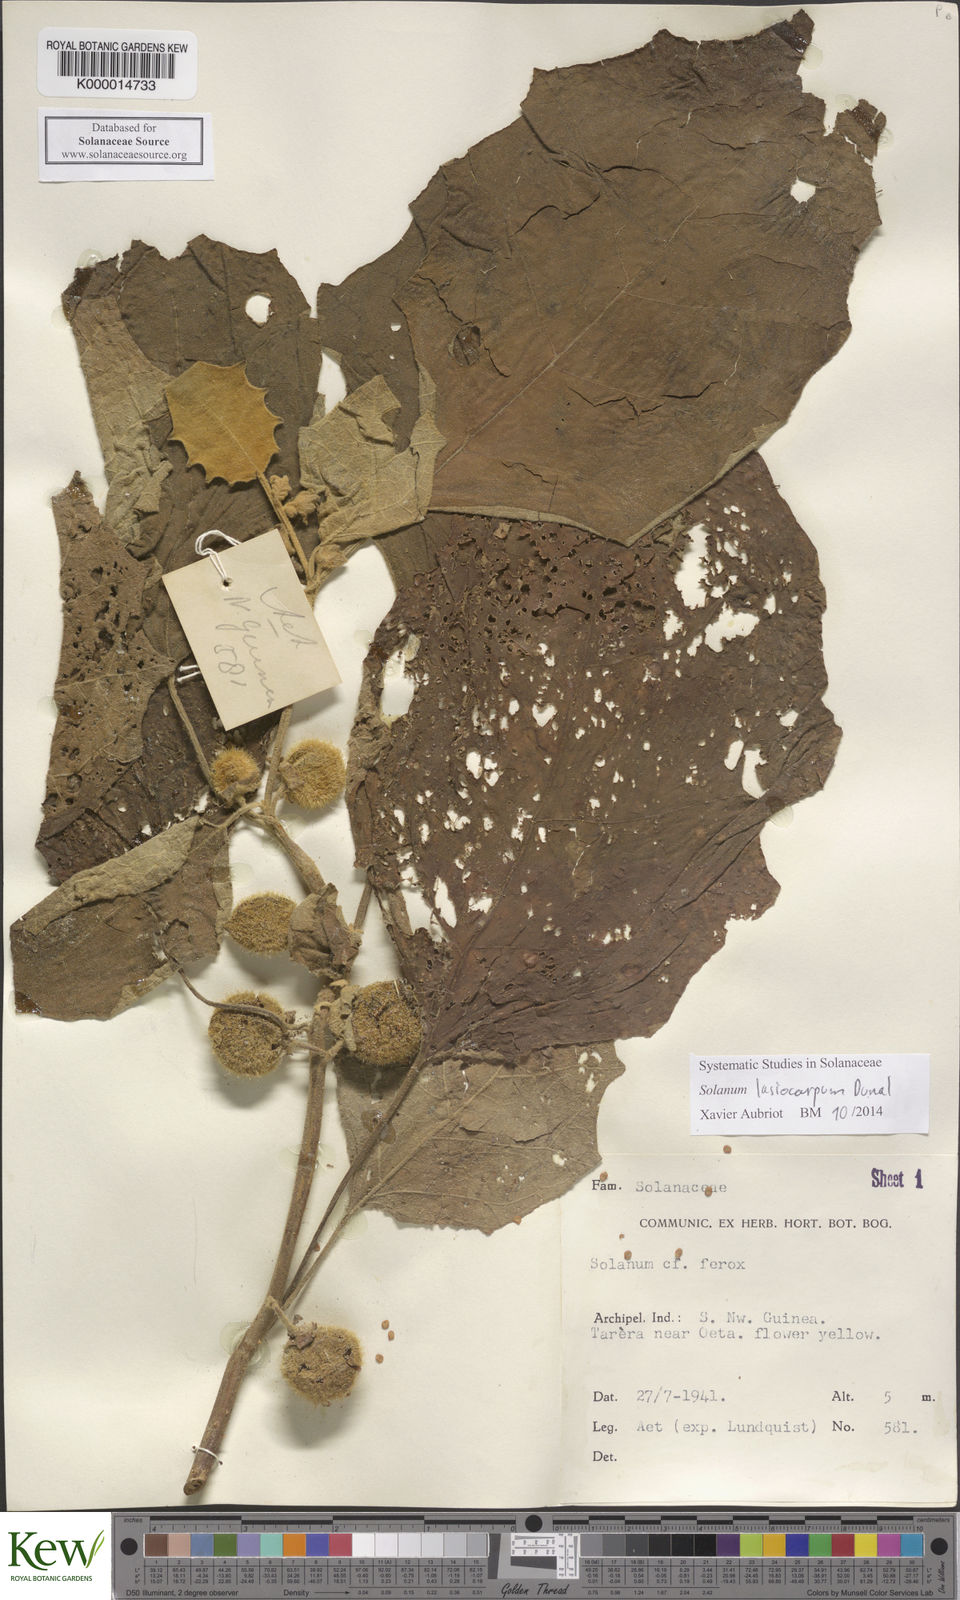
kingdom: Plantae
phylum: Tracheophyta
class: Magnoliopsida
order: Solanales
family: Solanaceae
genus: Solanum
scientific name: Solanum lasiocarpum
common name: Indian nightshade
